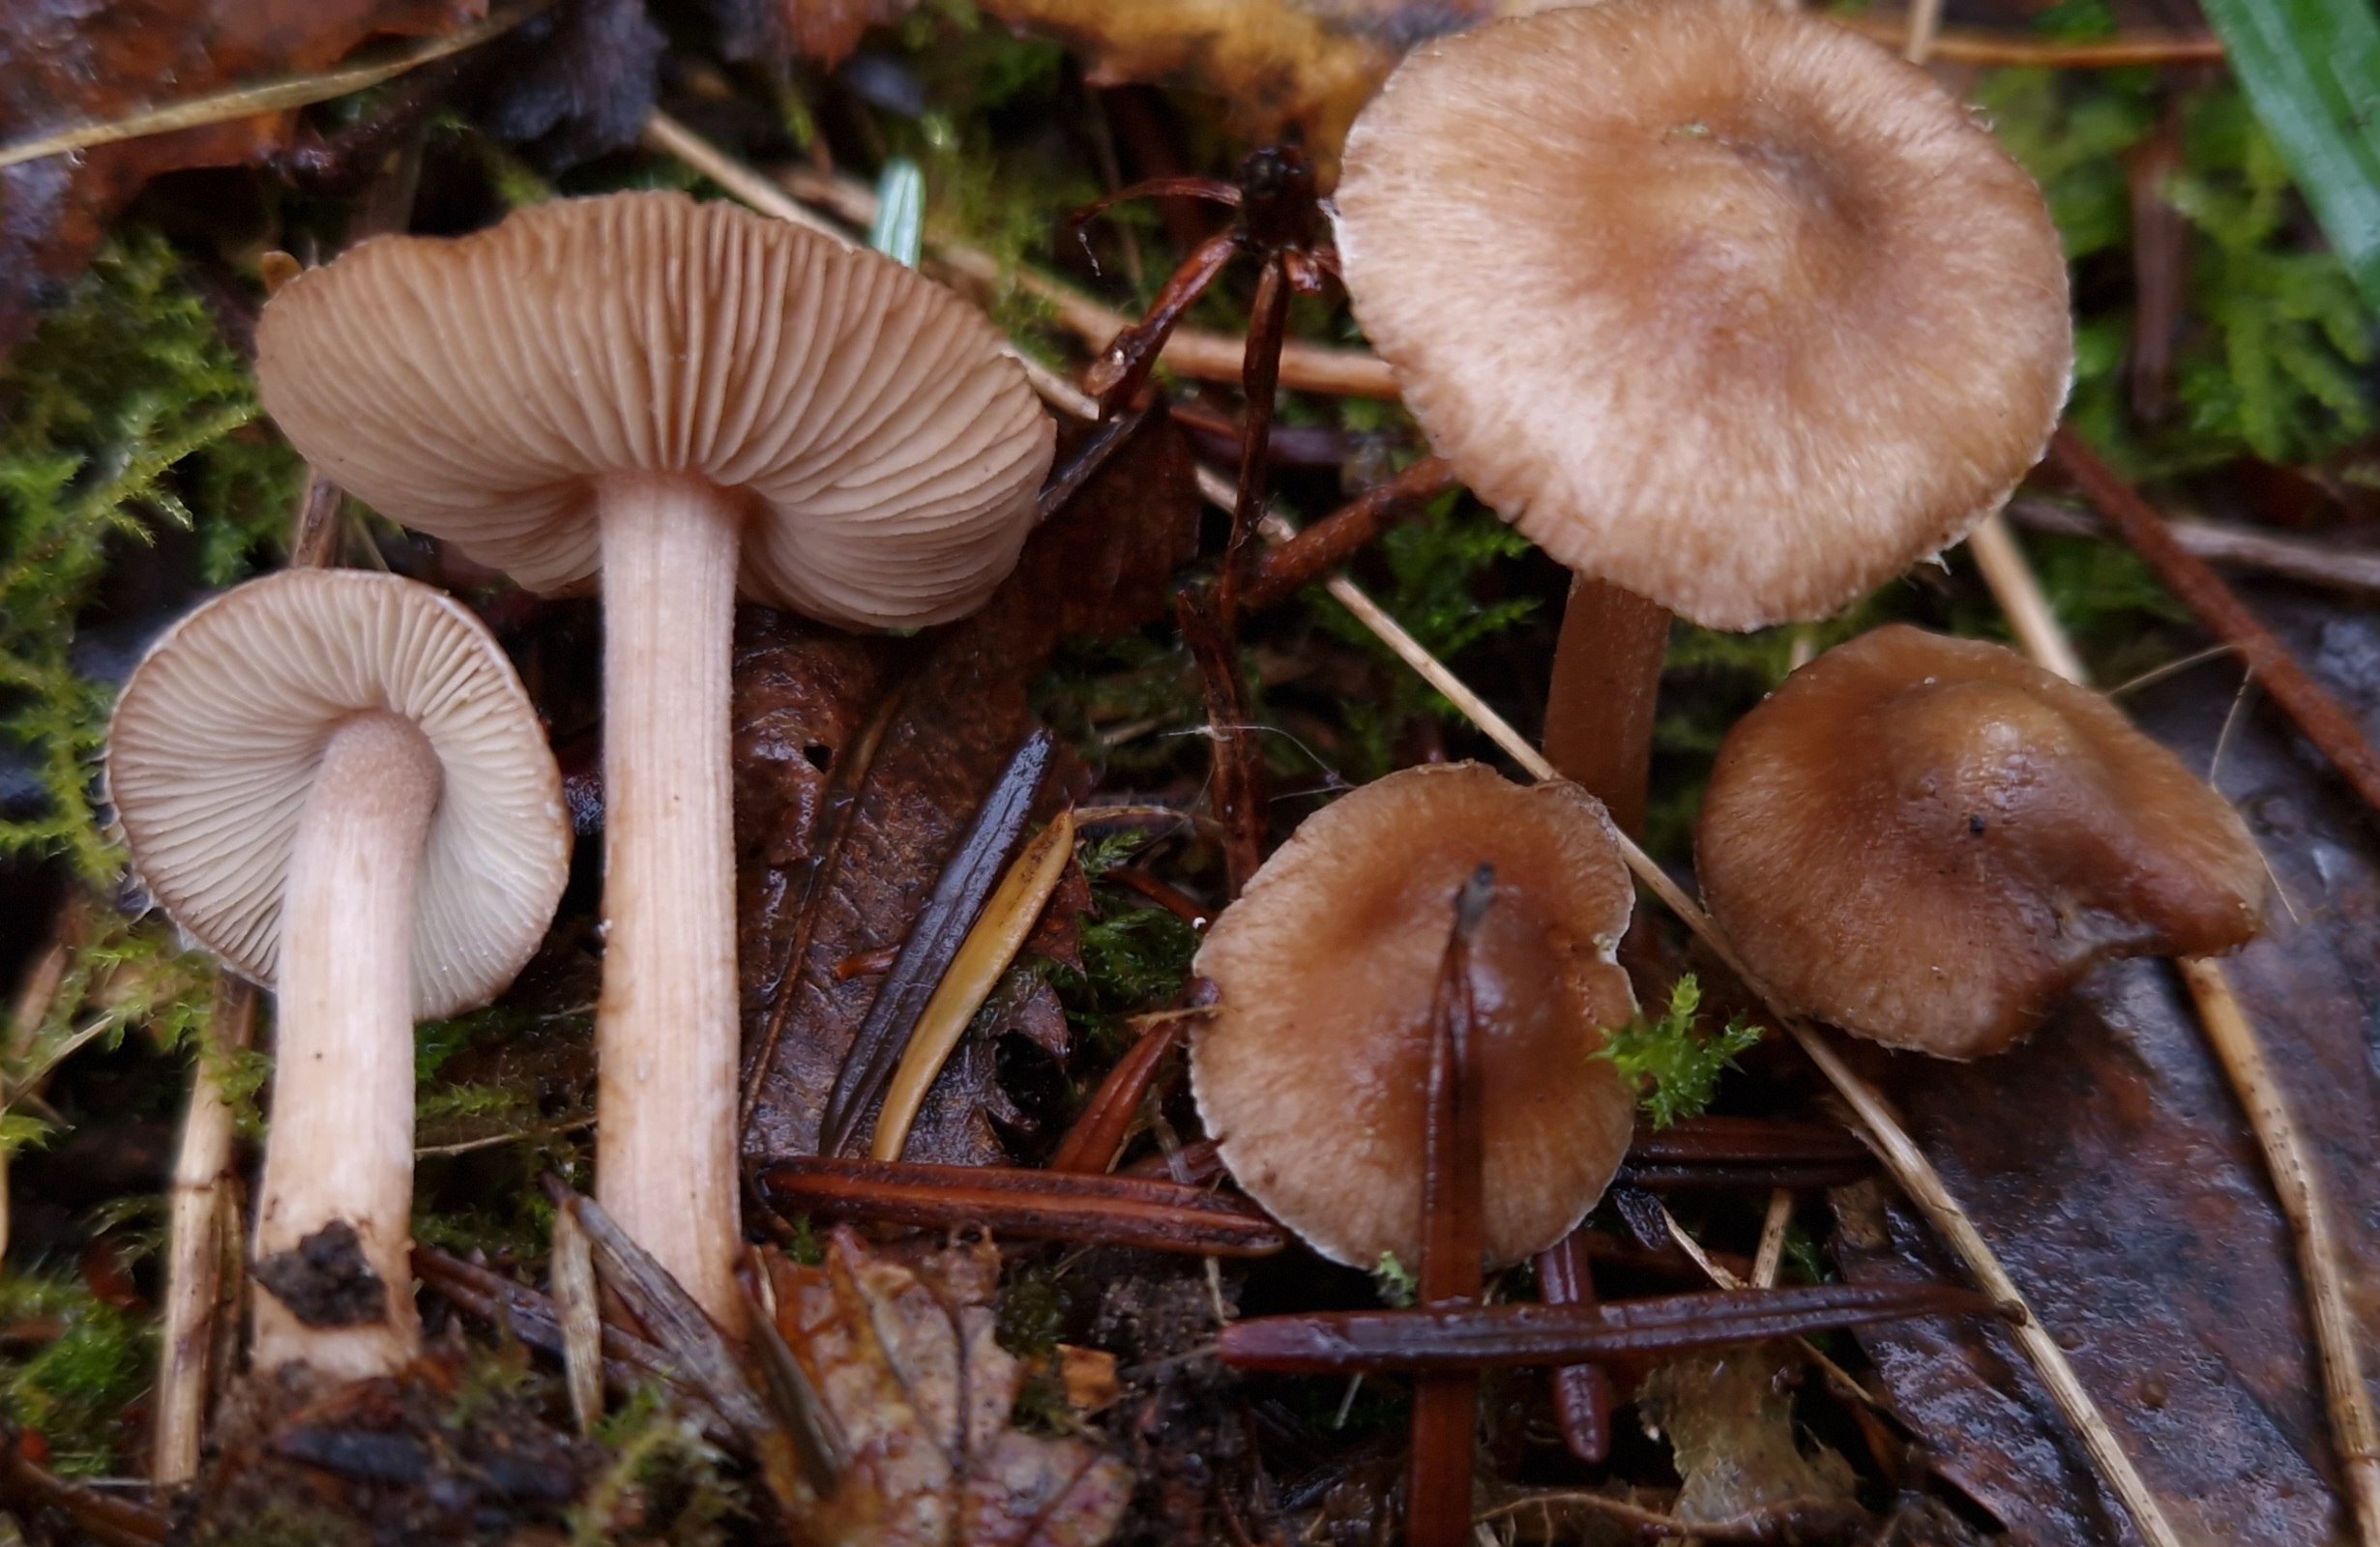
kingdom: Fungi
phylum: Basidiomycota
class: Agaricomycetes
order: Agaricales
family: Inocybaceae
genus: Inocybe
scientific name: Inocybe
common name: trævlhat
